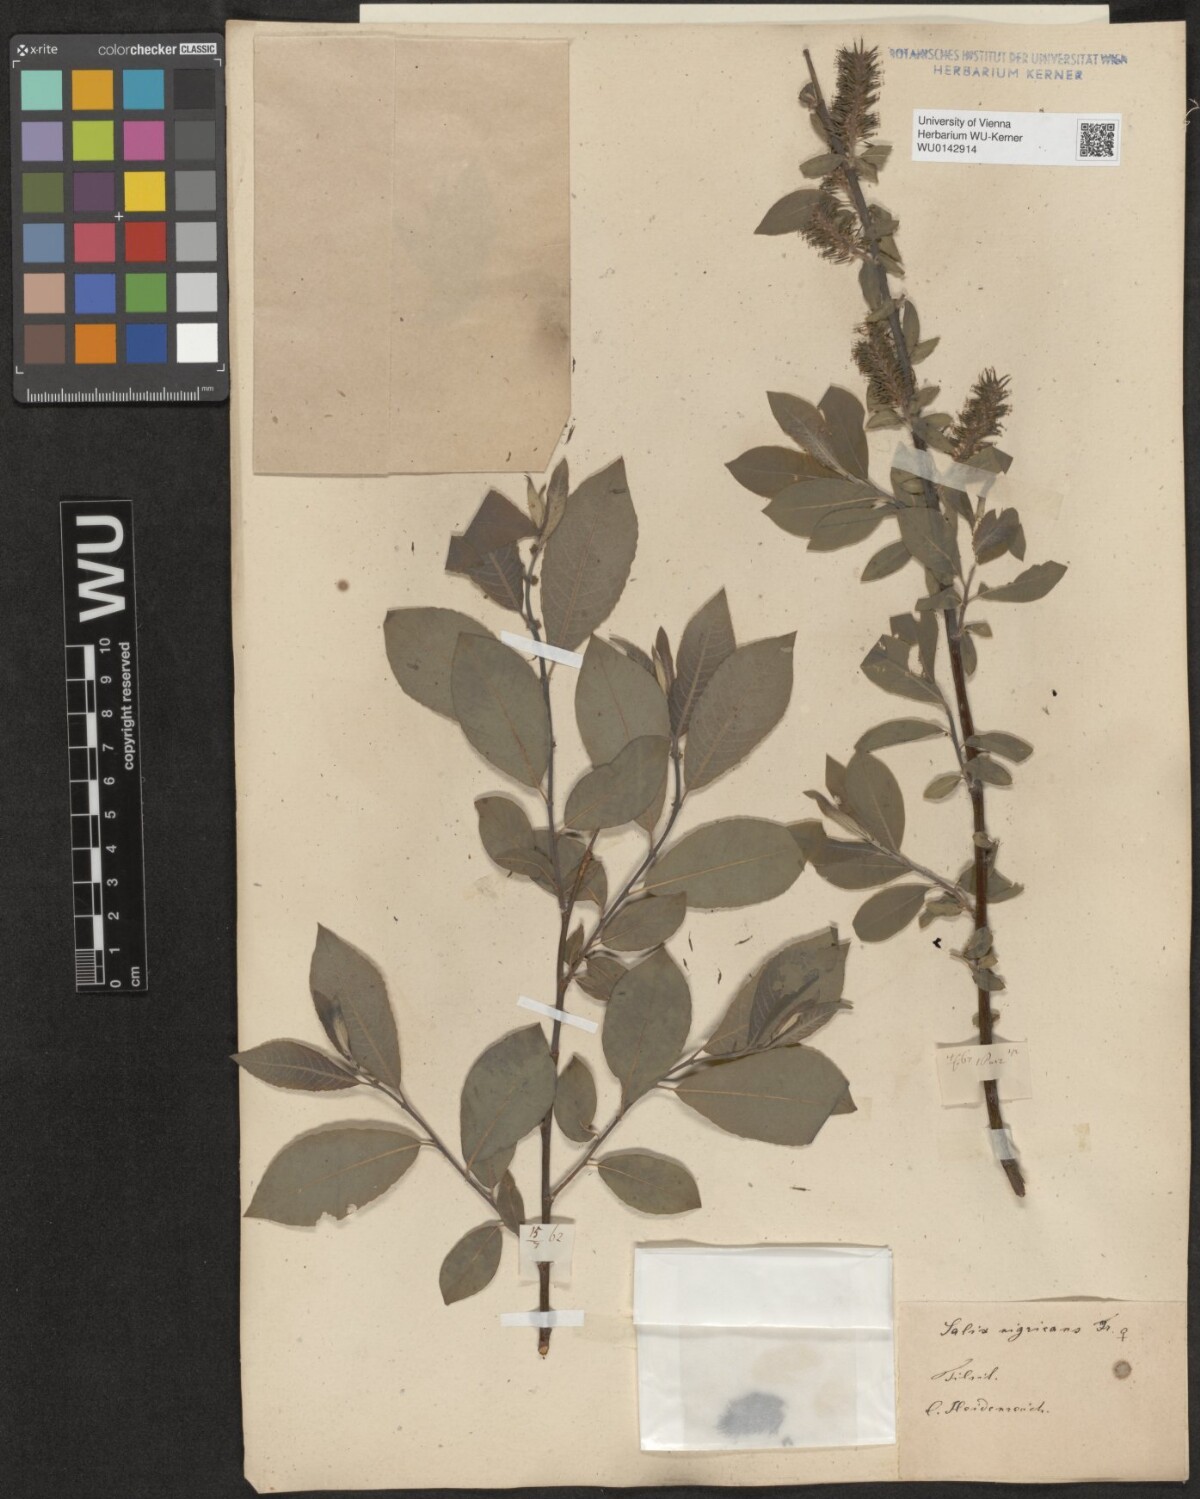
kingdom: Plantae
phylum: Tracheophyta
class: Magnoliopsida
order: Malpighiales
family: Salicaceae
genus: Salix
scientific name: Salix myrsinifolia
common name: Dark-leaved willow
